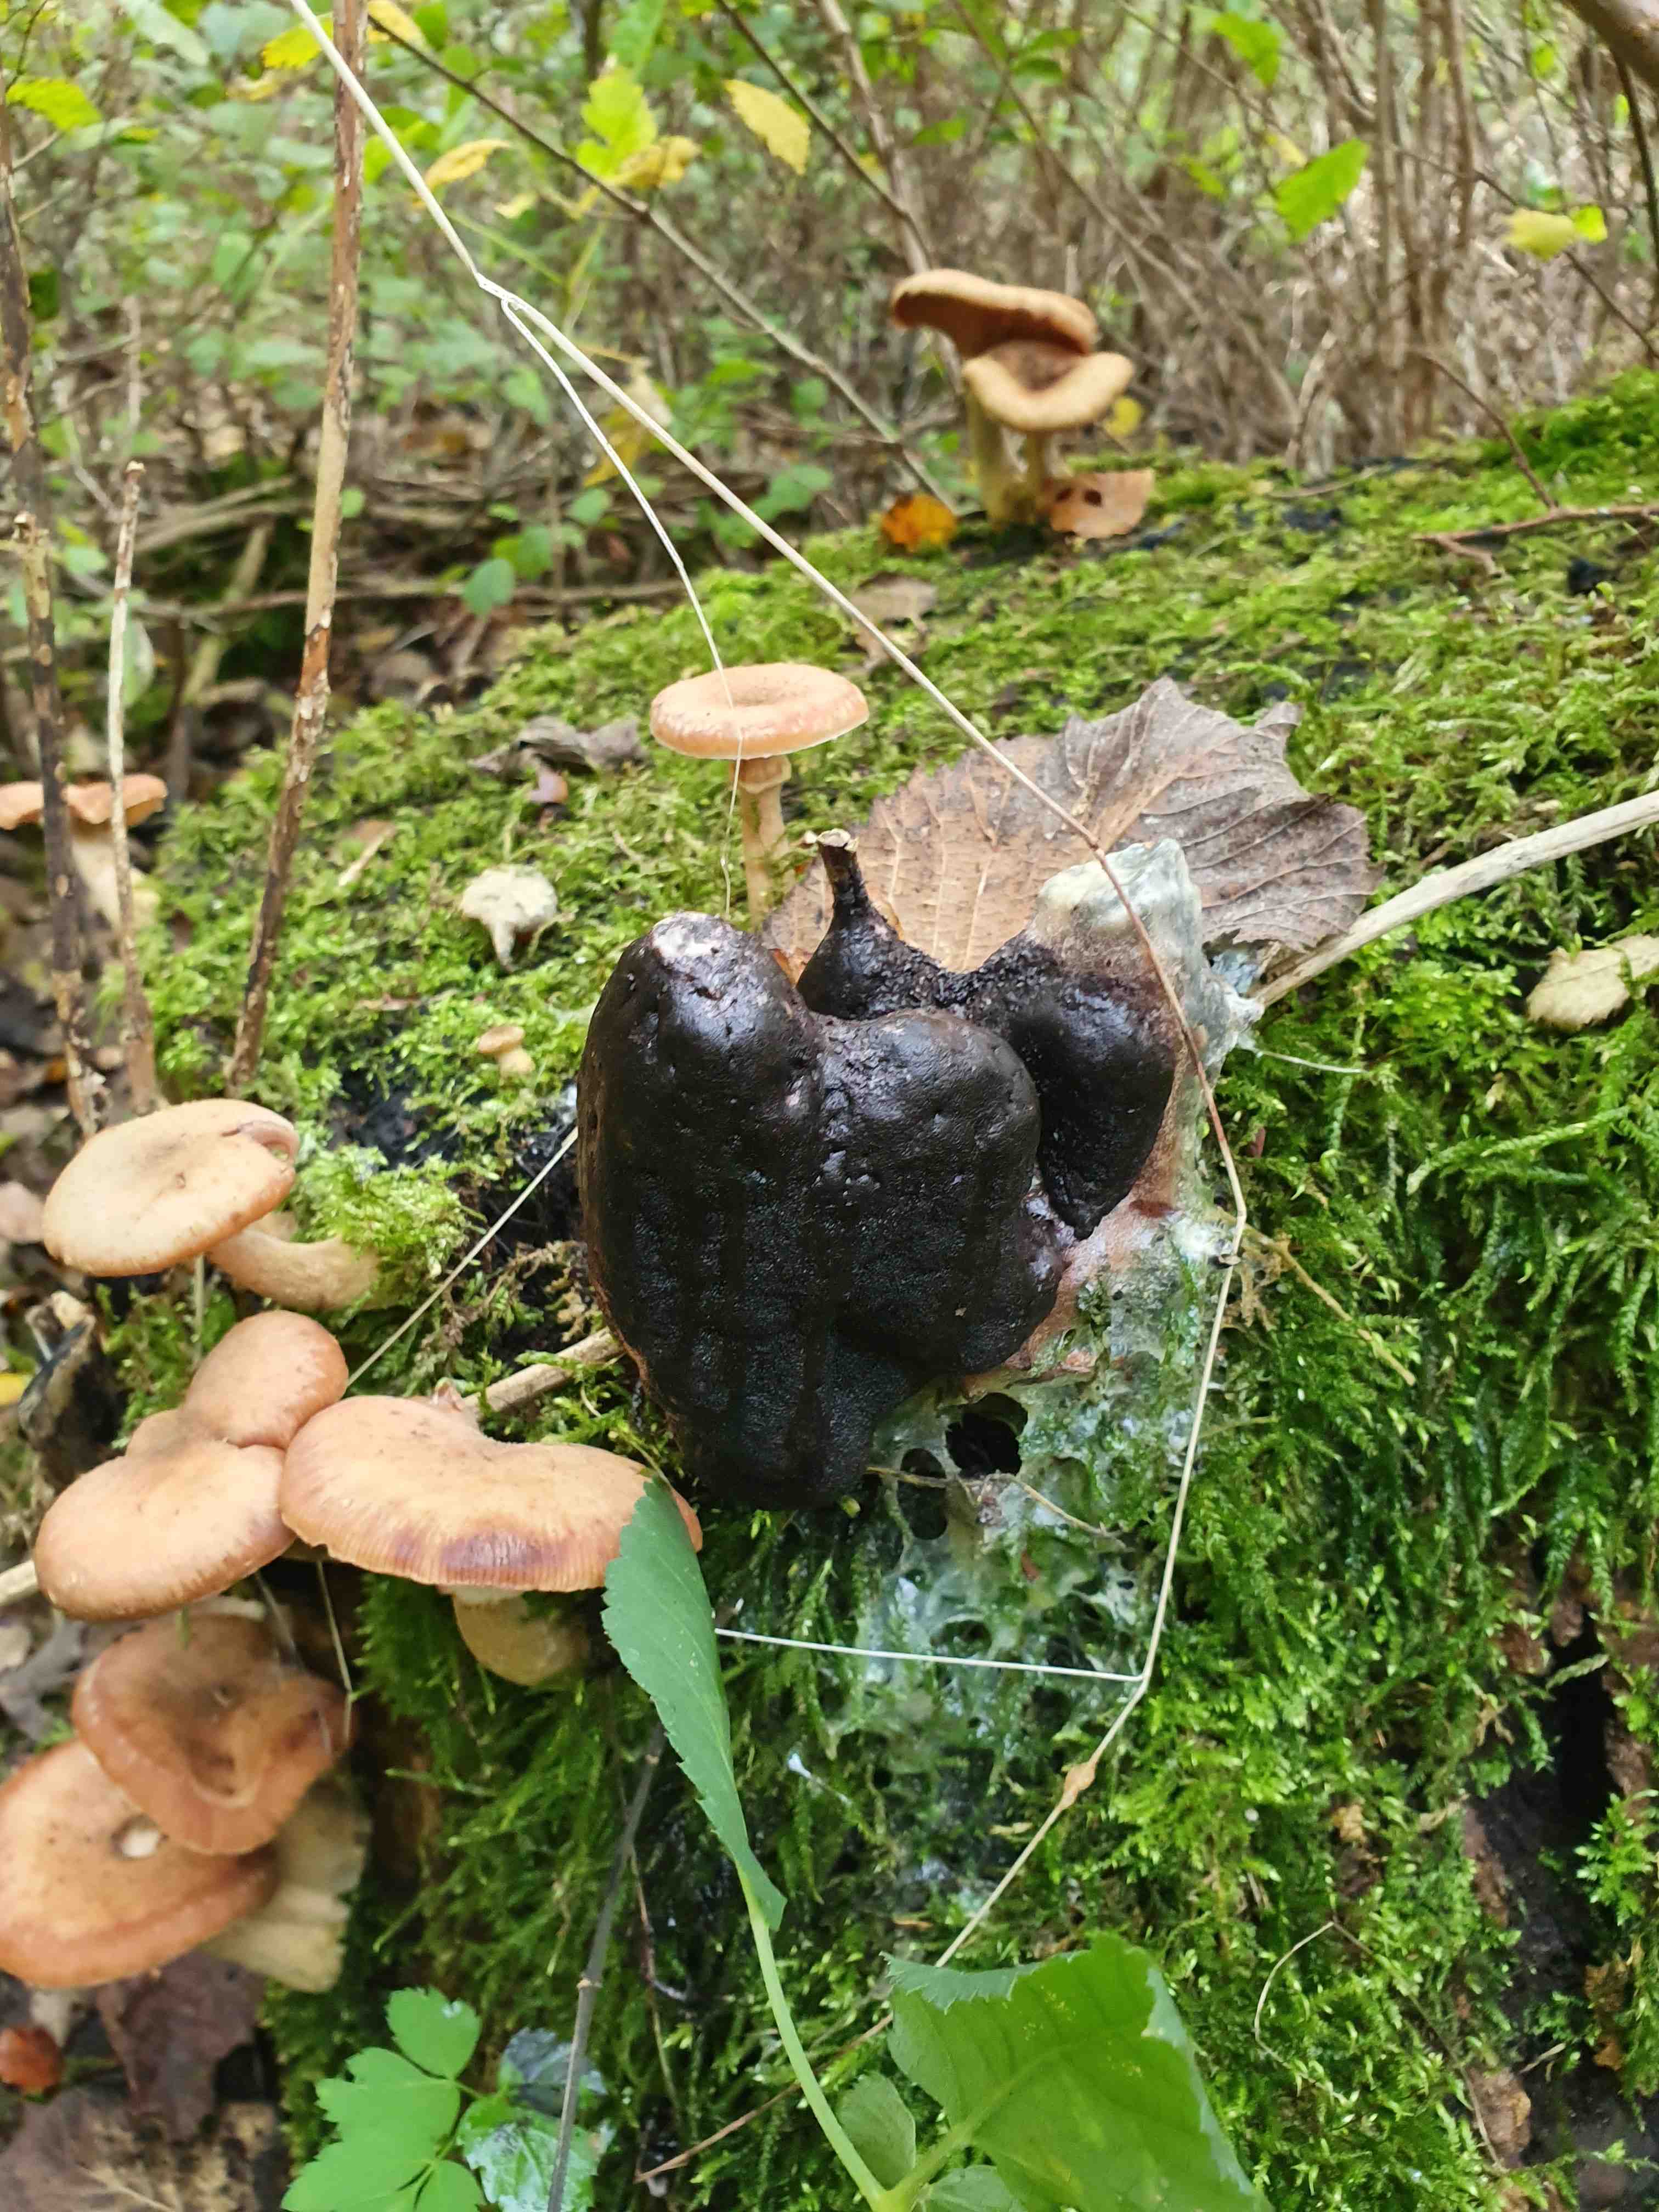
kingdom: Protozoa
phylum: Mycetozoa
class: Myxomycetes
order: Stemonitidales
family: Stemonitidaceae
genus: Brefeldia
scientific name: Brefeldia maxima
